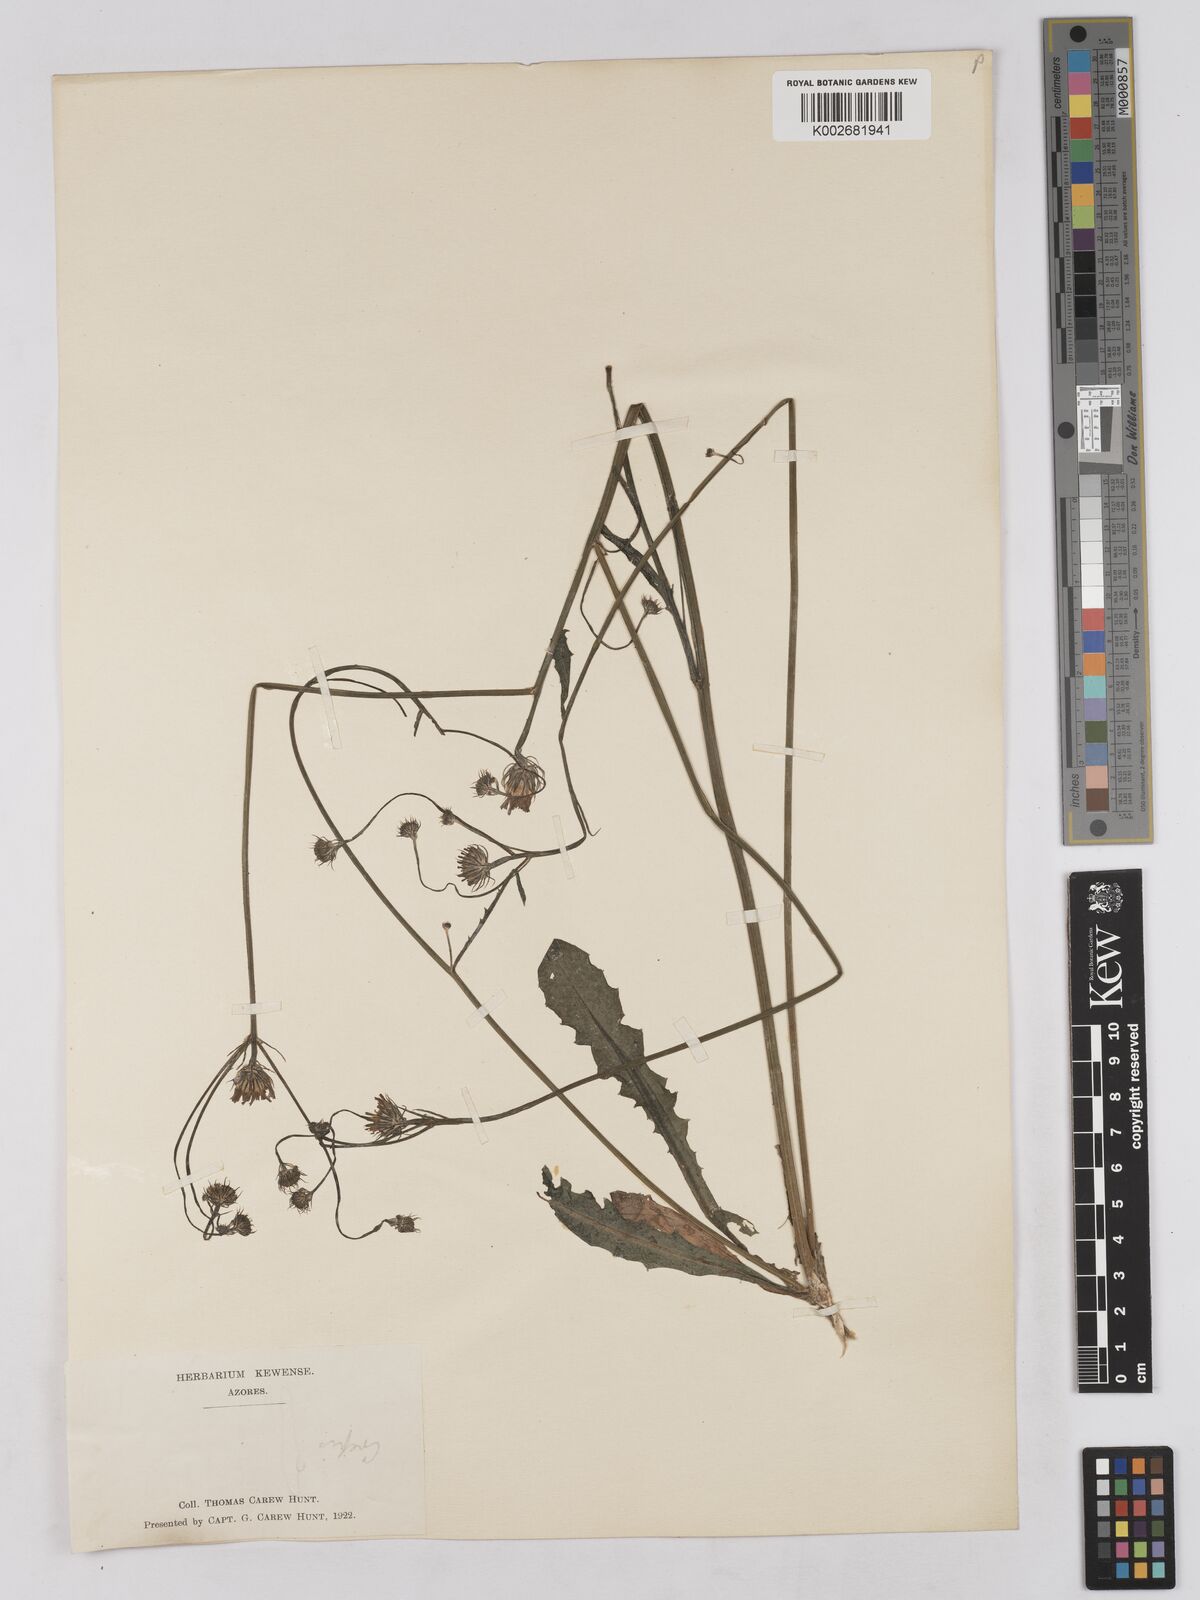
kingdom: Plantae
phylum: Tracheophyta
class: Magnoliopsida
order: Asterales
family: Asteraceae
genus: Tolpis
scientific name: Tolpis umbellata
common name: Yellow hawkweed
